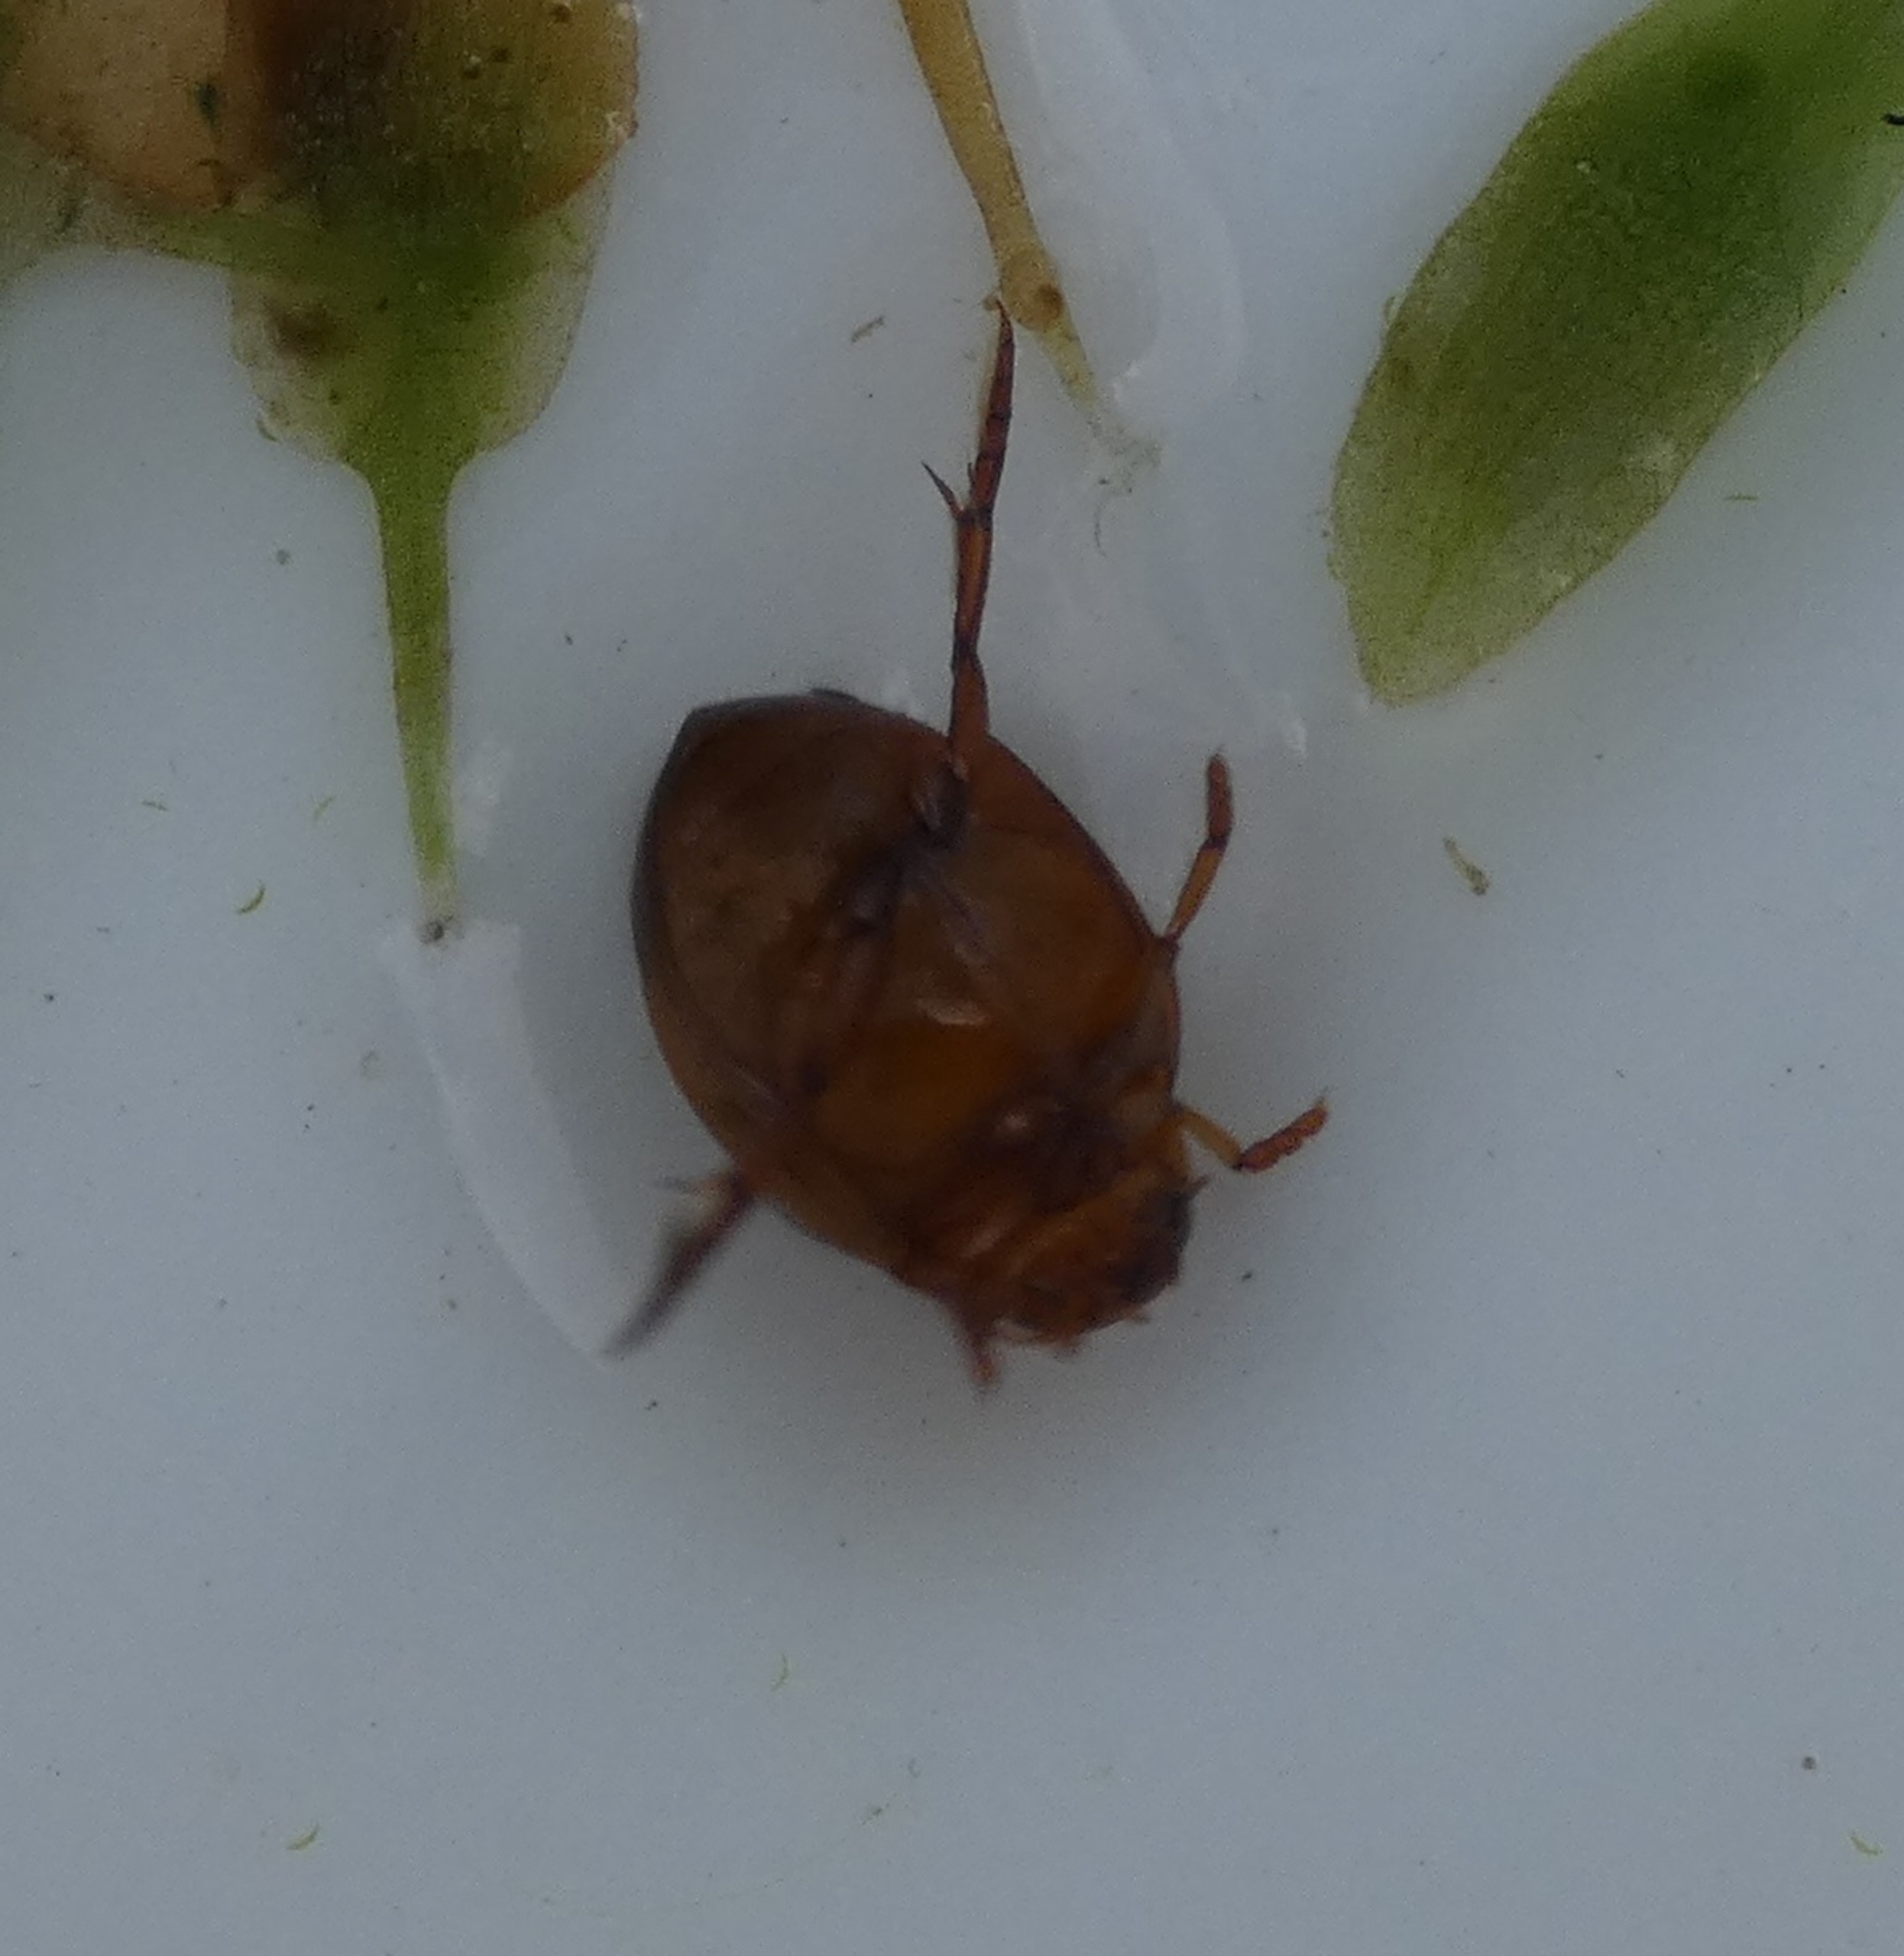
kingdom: Animalia
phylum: Arthropoda
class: Insecta
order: Coleoptera
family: Dytiscidae
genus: Hyphydrus
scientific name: Hyphydrus ovatus
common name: Rød kuglevandkalv
